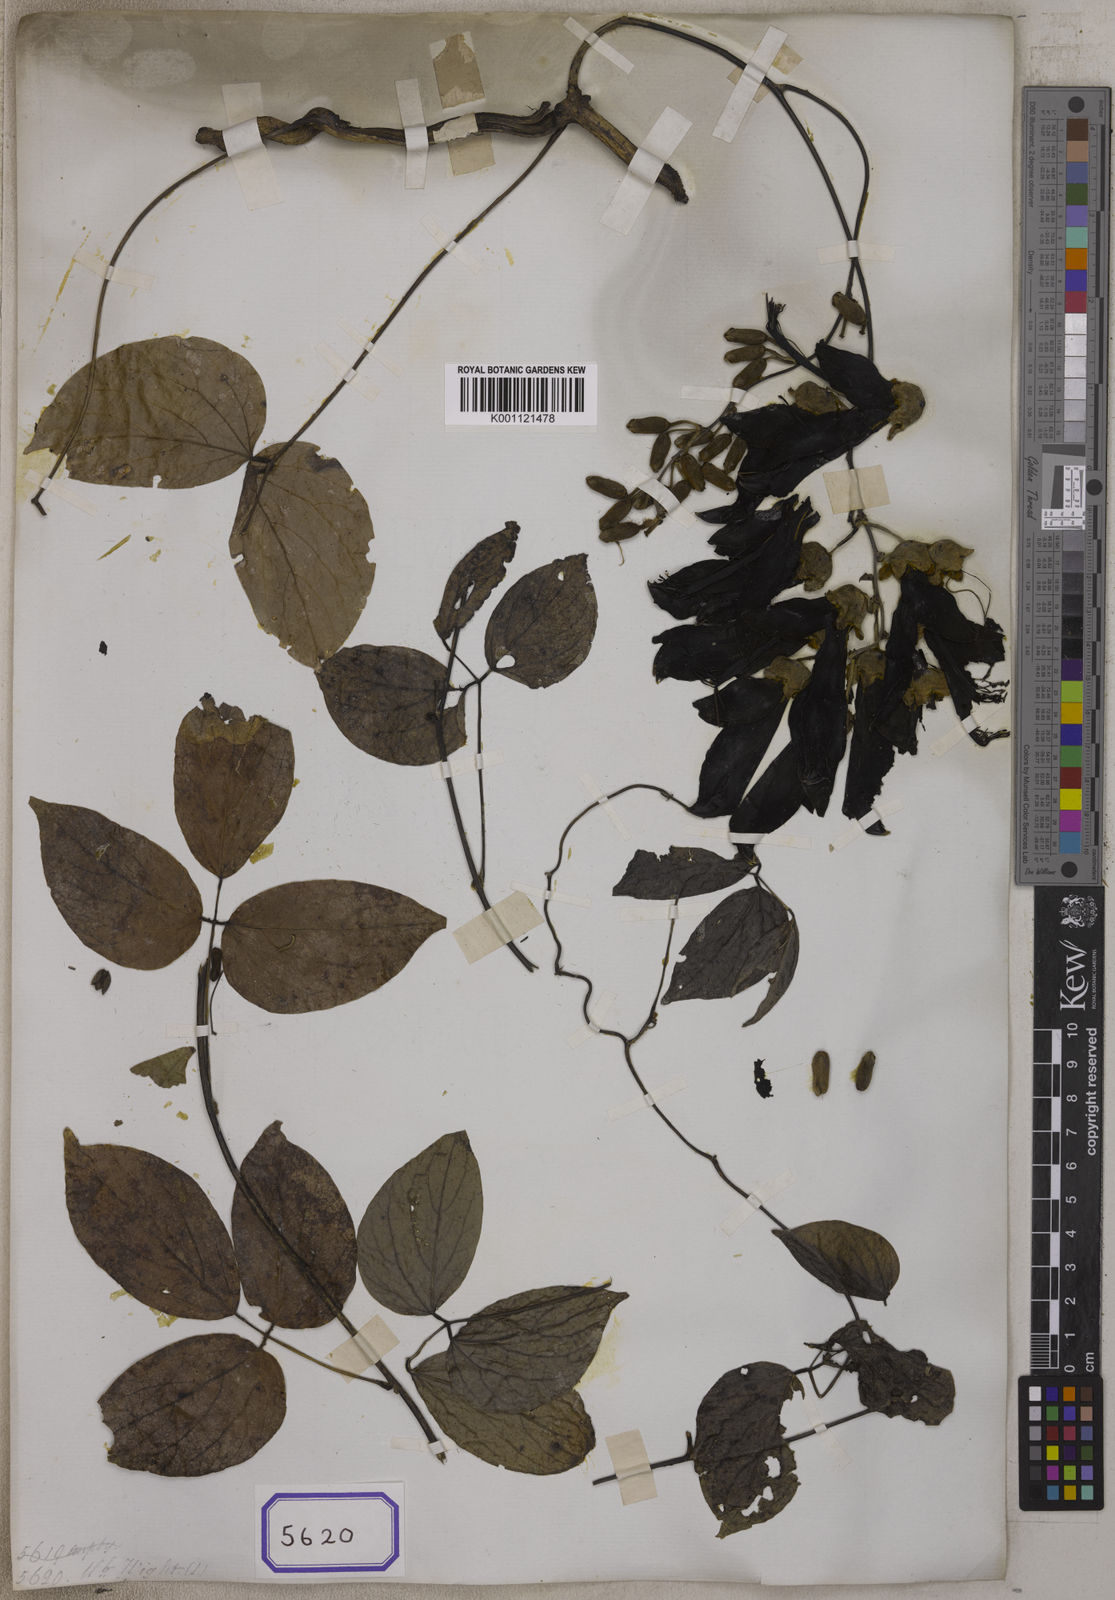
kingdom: Plantae
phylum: Tracheophyta
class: Magnoliopsida
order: Fabales
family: Fabaceae
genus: Mucuna
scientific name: Mucuna
